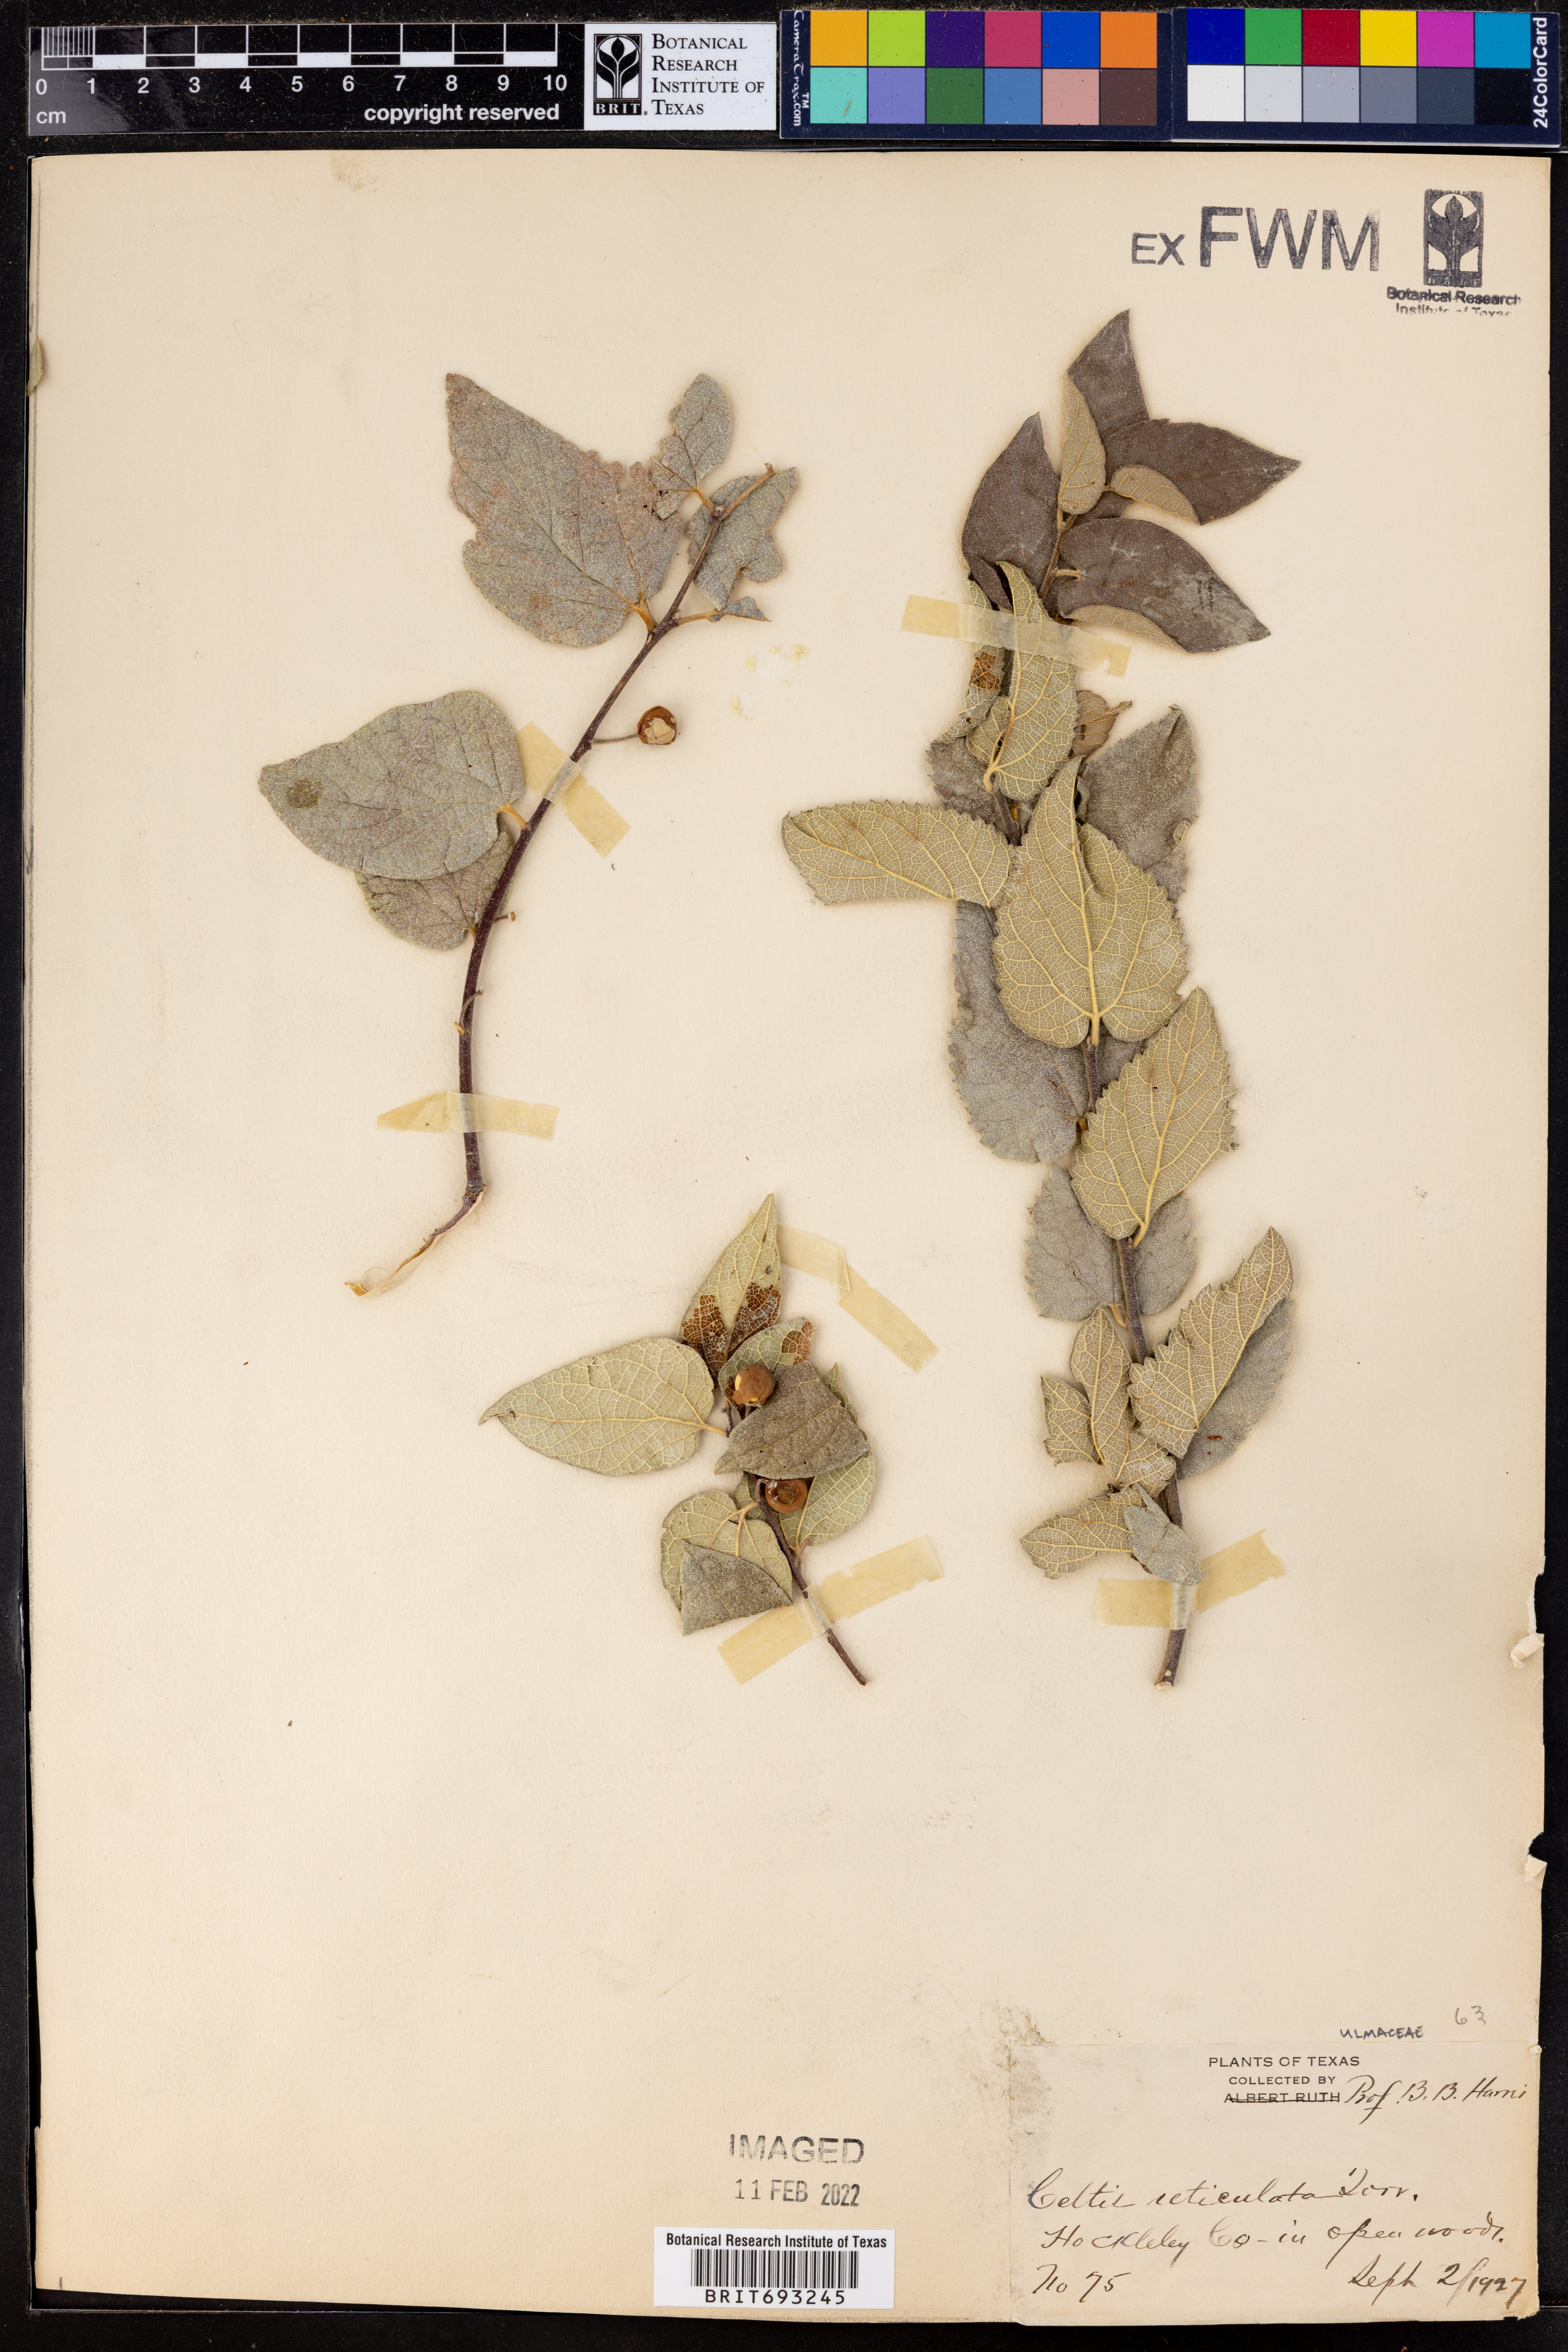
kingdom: Plantae
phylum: Tracheophyta
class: Magnoliopsida
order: Rosales
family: Cannabaceae
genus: Celtis
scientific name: Celtis reticulata
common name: Netleaf hackberry
